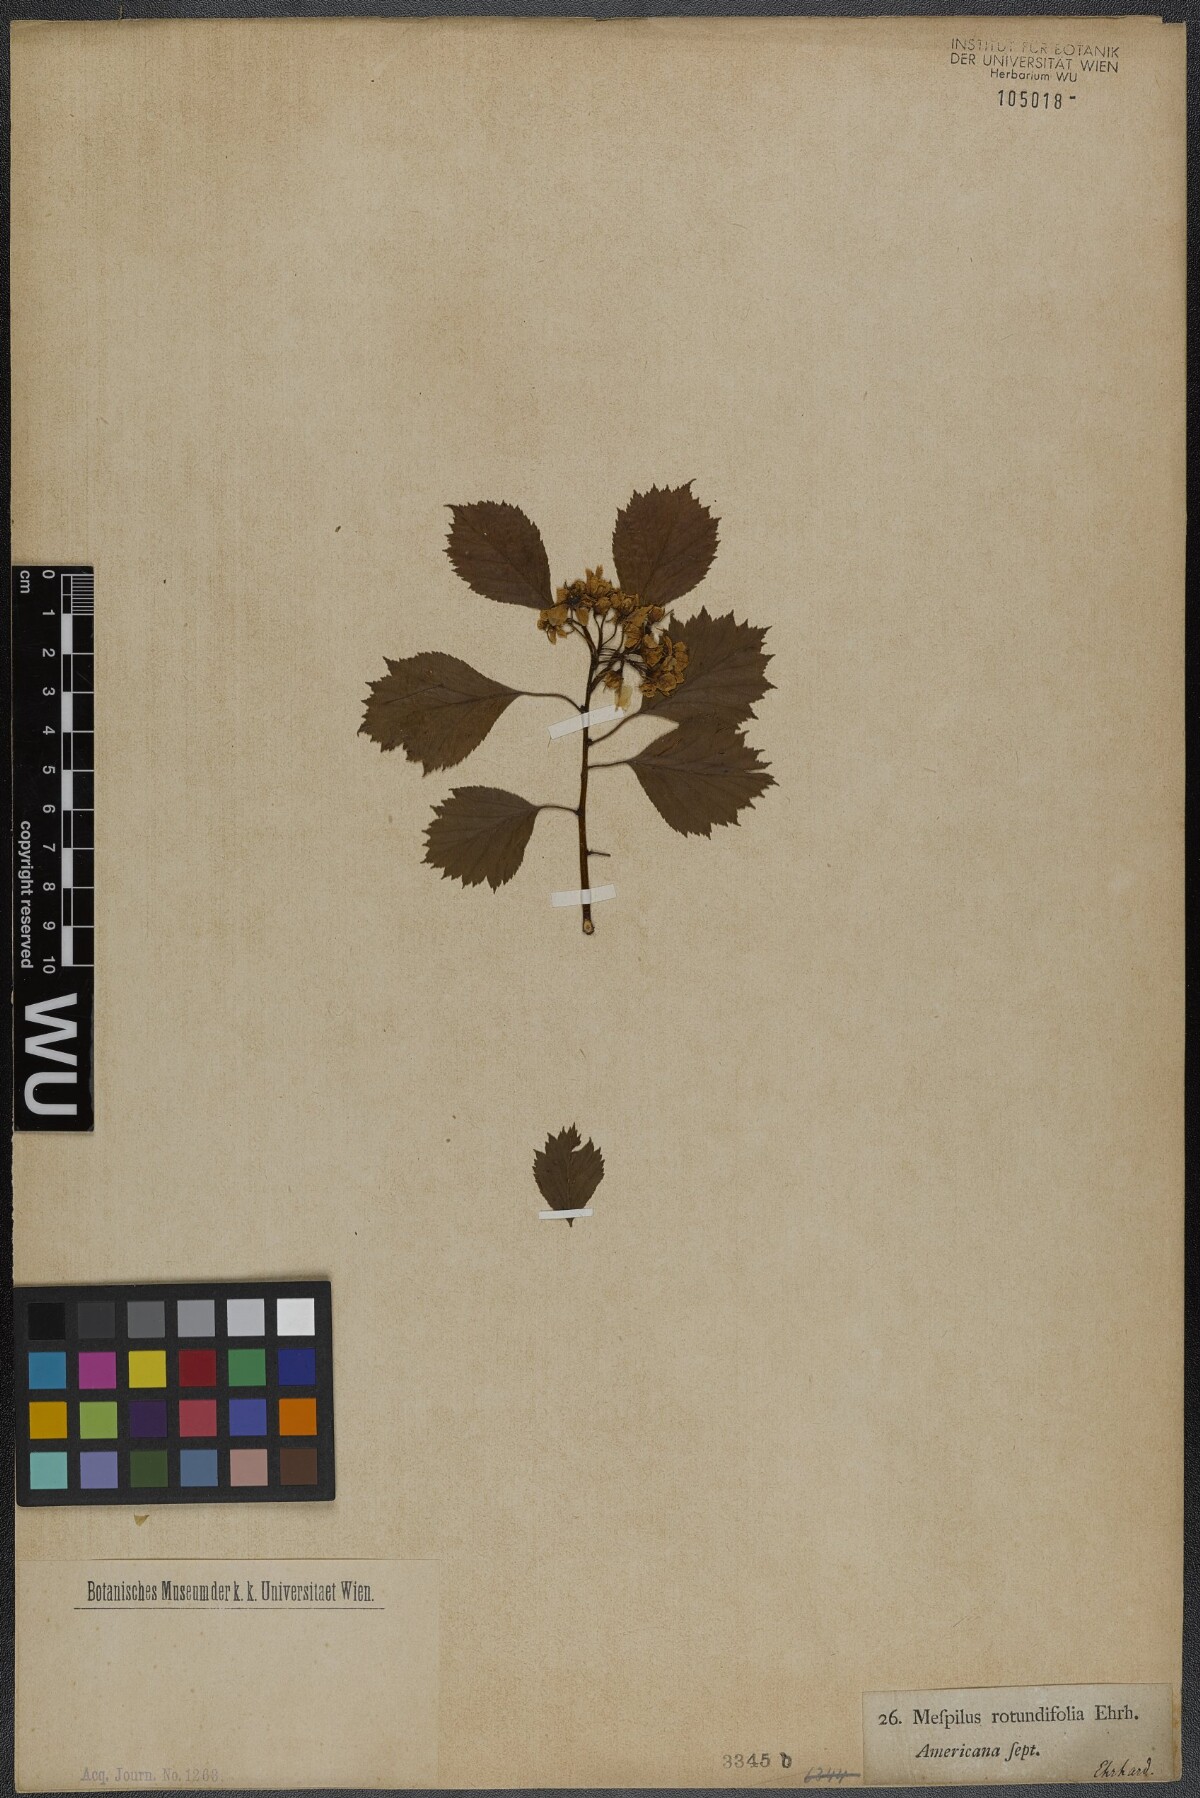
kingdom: Plantae
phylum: Tracheophyta
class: Magnoliopsida
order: Rosales
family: Rosaceae
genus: Crataegus
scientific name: Crataegus chrysocarpa
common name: Fire-berry hawthorn
